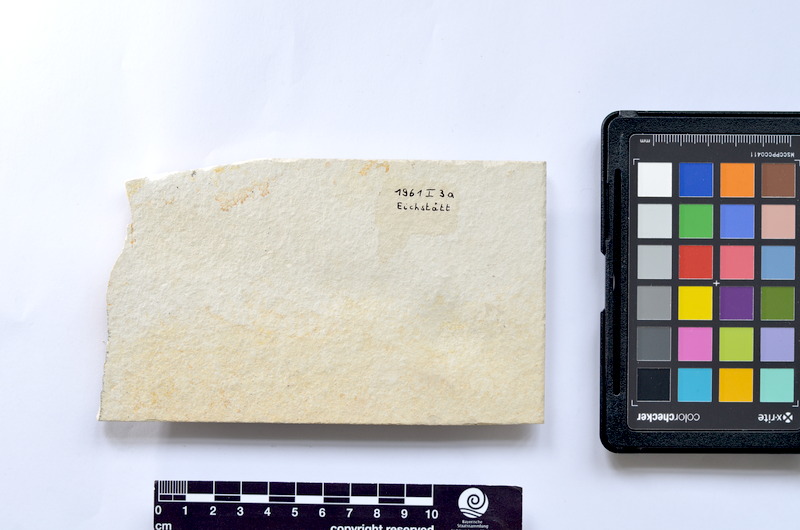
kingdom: Animalia
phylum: Chordata
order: Elopiformes
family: Anaethalionidae
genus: Anaethalion
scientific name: Anaethalion knorri
